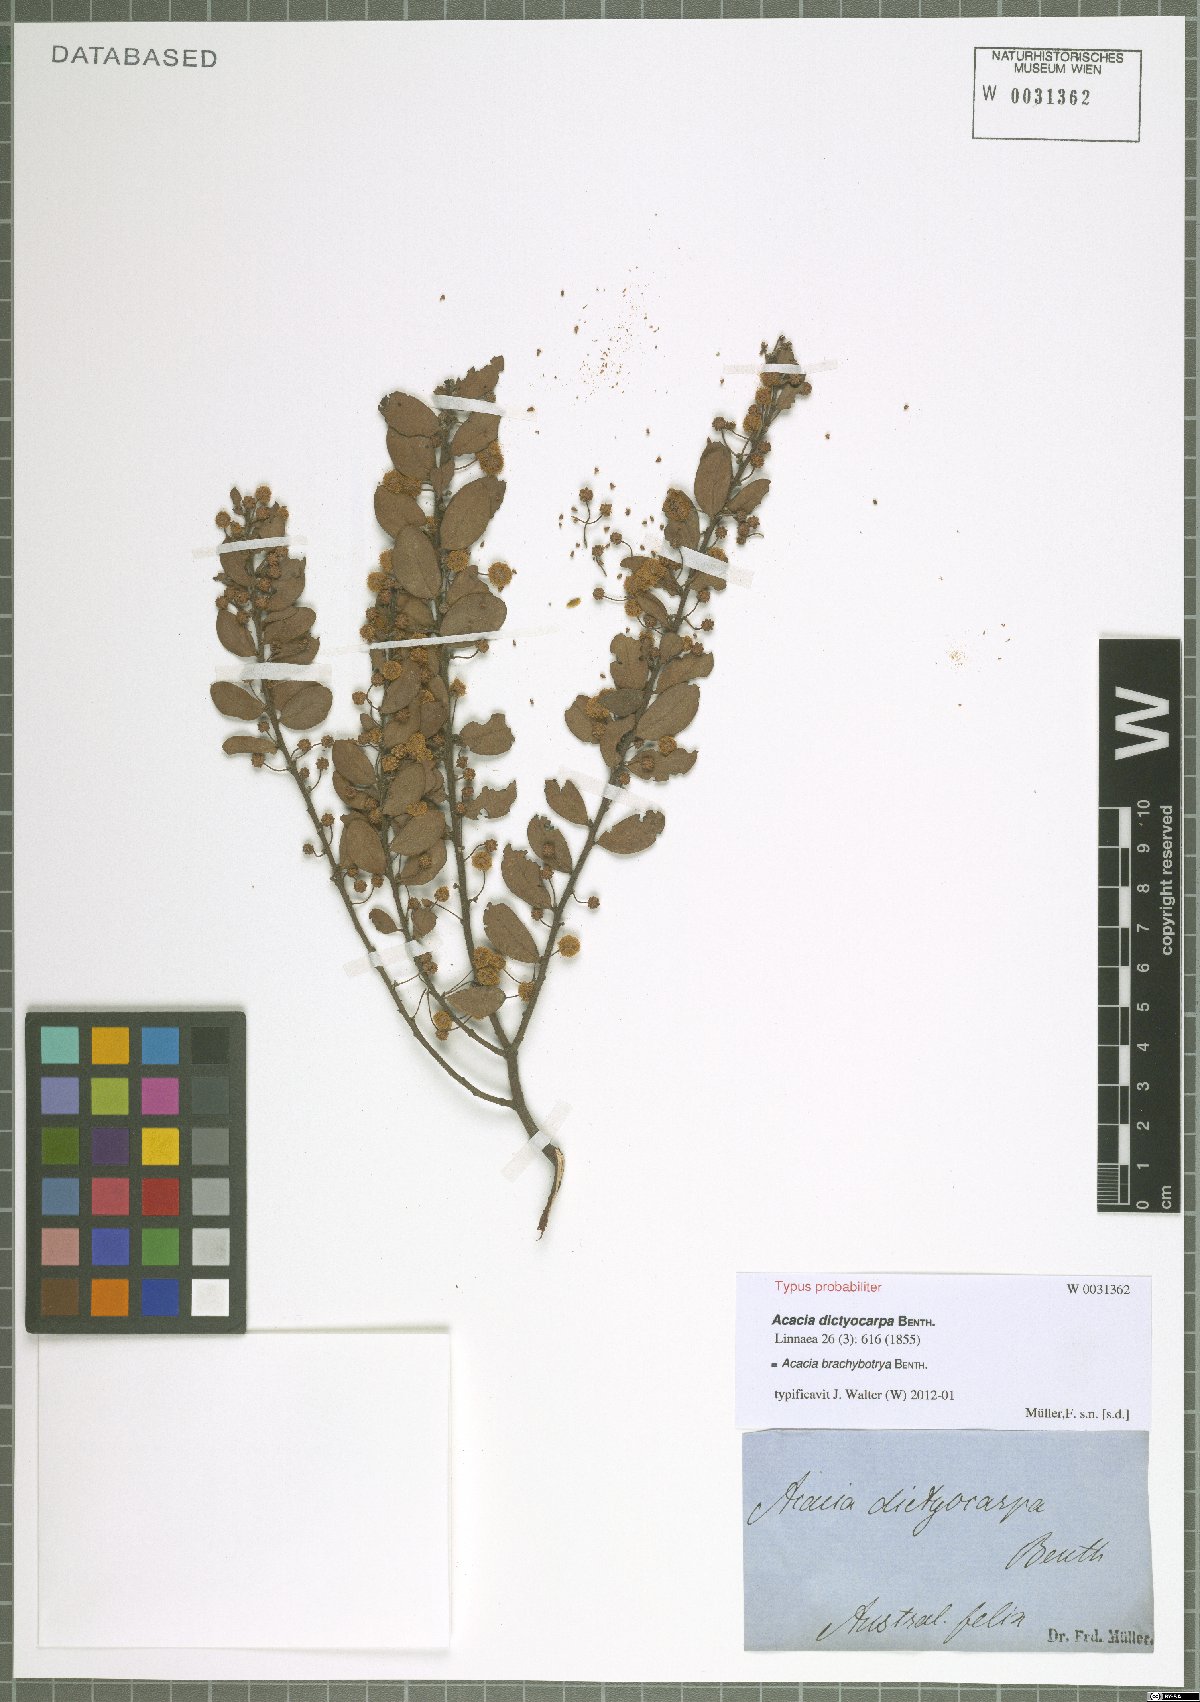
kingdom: Plantae
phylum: Tracheophyta
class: Magnoliopsida
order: Fabales
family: Fabaceae
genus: Acacia
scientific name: Acacia brachybotrya
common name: Grey mulga
